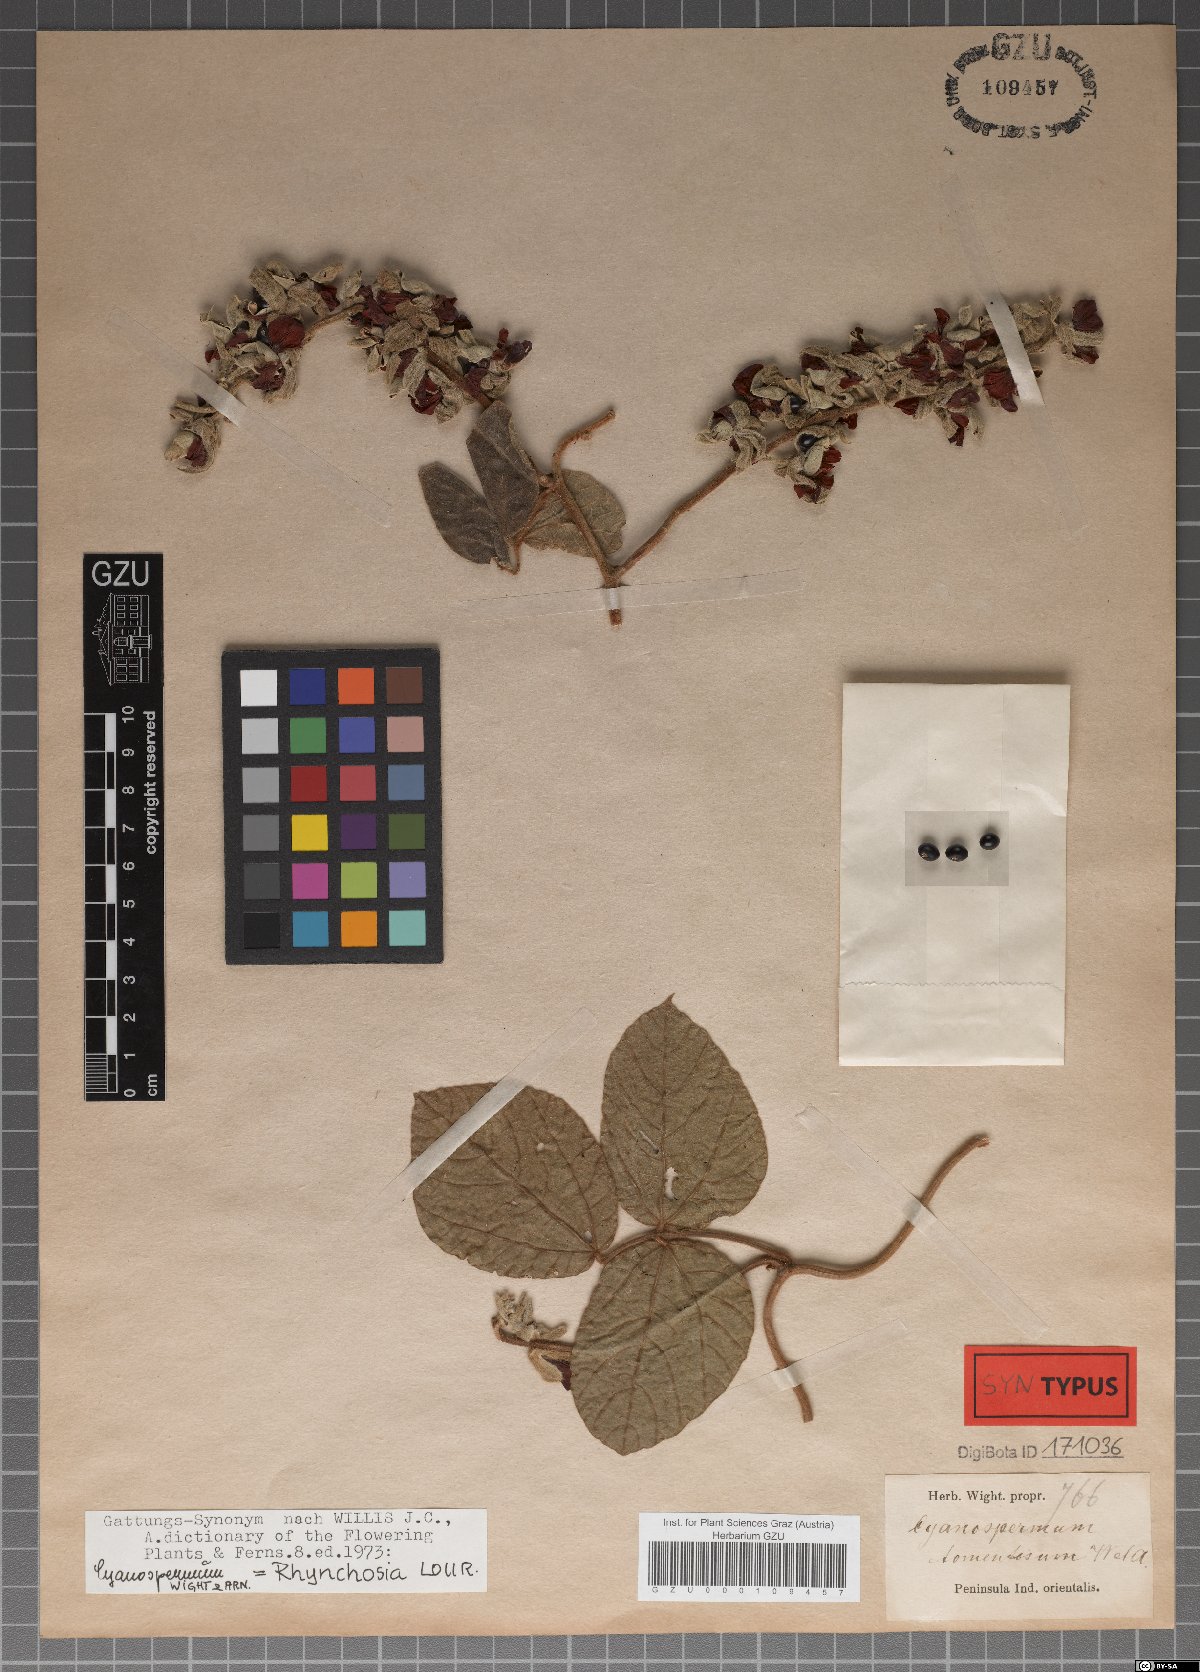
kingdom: Plantae
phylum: Tracheophyta
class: Magnoliopsida
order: Fabales
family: Fabaceae
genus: Rhynchosia
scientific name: Rhynchosia hirta
